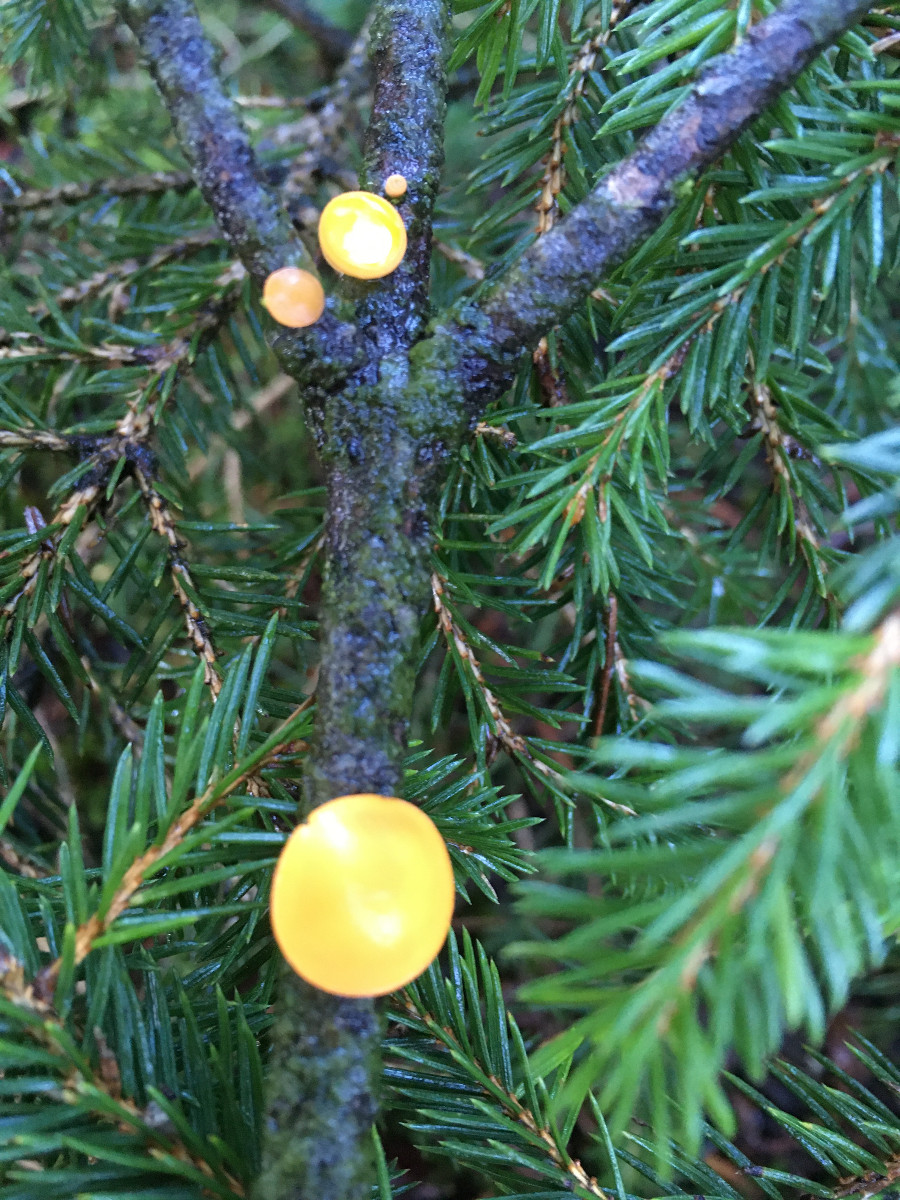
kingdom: Fungi
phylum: Ascomycota
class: Pezizomycetes
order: Pezizales
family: Sarcoscyphaceae
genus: Pithya
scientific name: Pithya vulgaris
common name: stor dukatbæger
